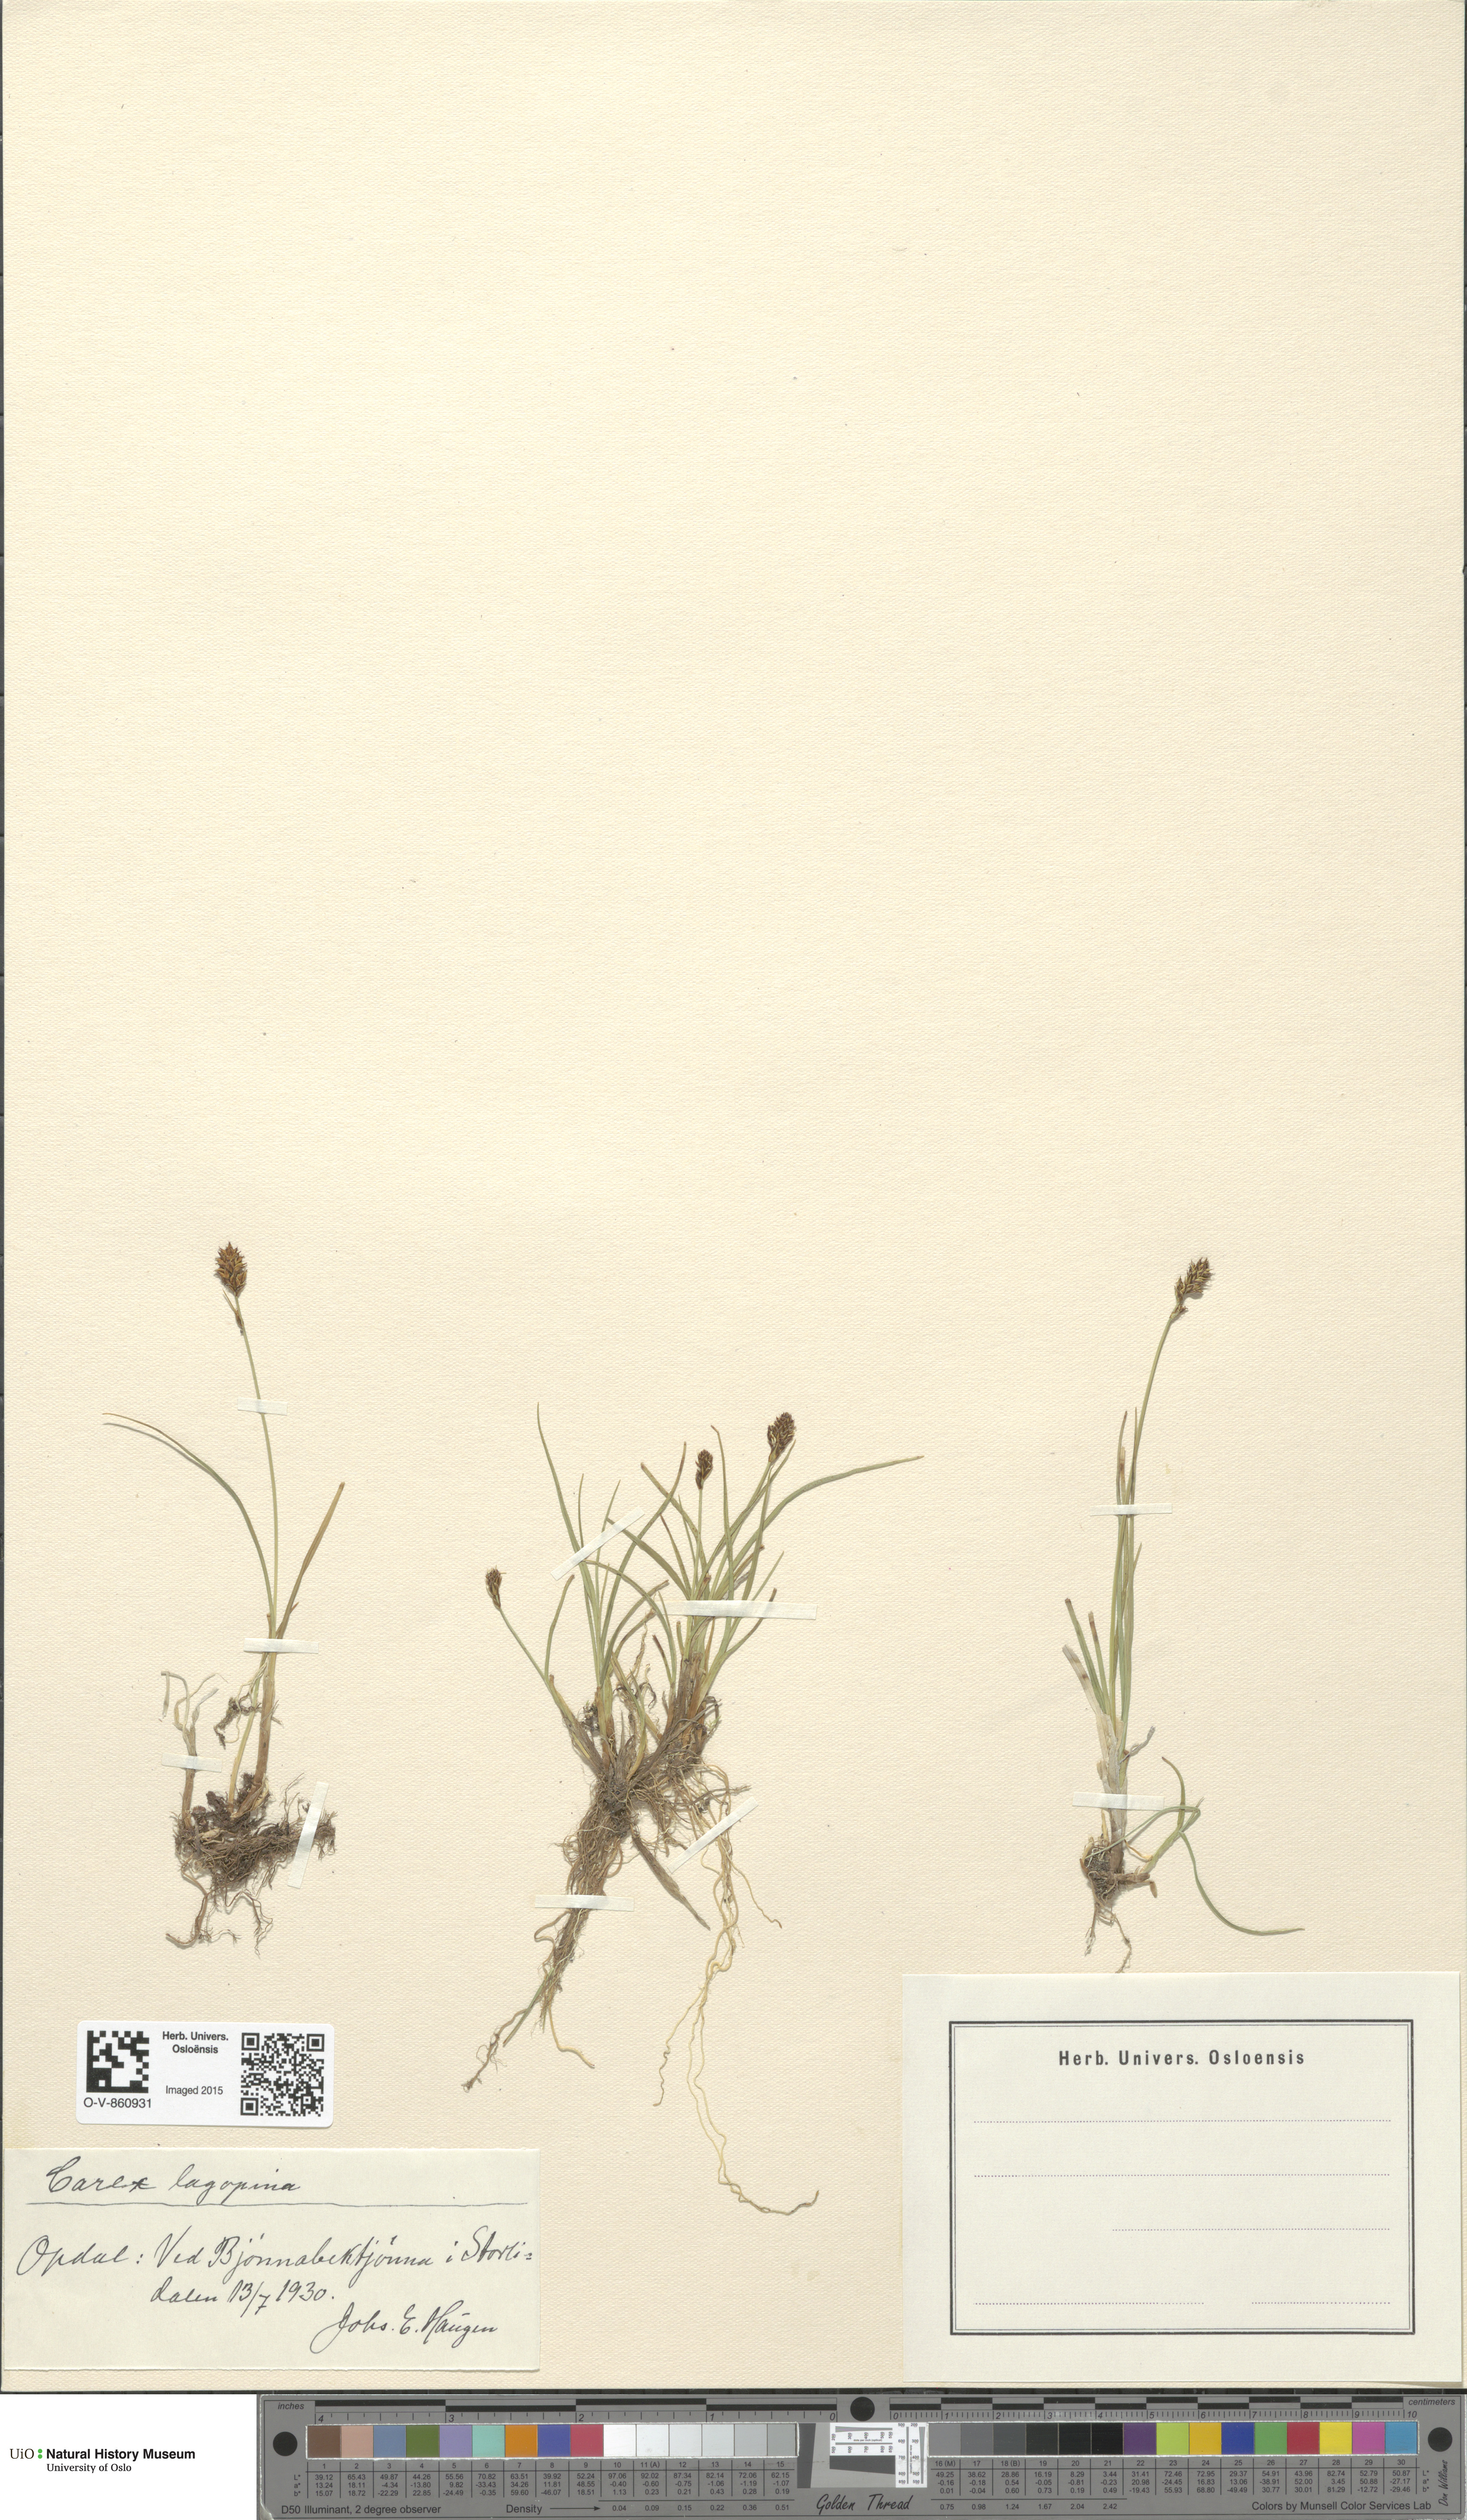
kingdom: Plantae
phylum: Tracheophyta
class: Liliopsida
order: Poales
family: Cyperaceae
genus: Carex
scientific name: Carex lachenalii
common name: Hare's-foot sedge
